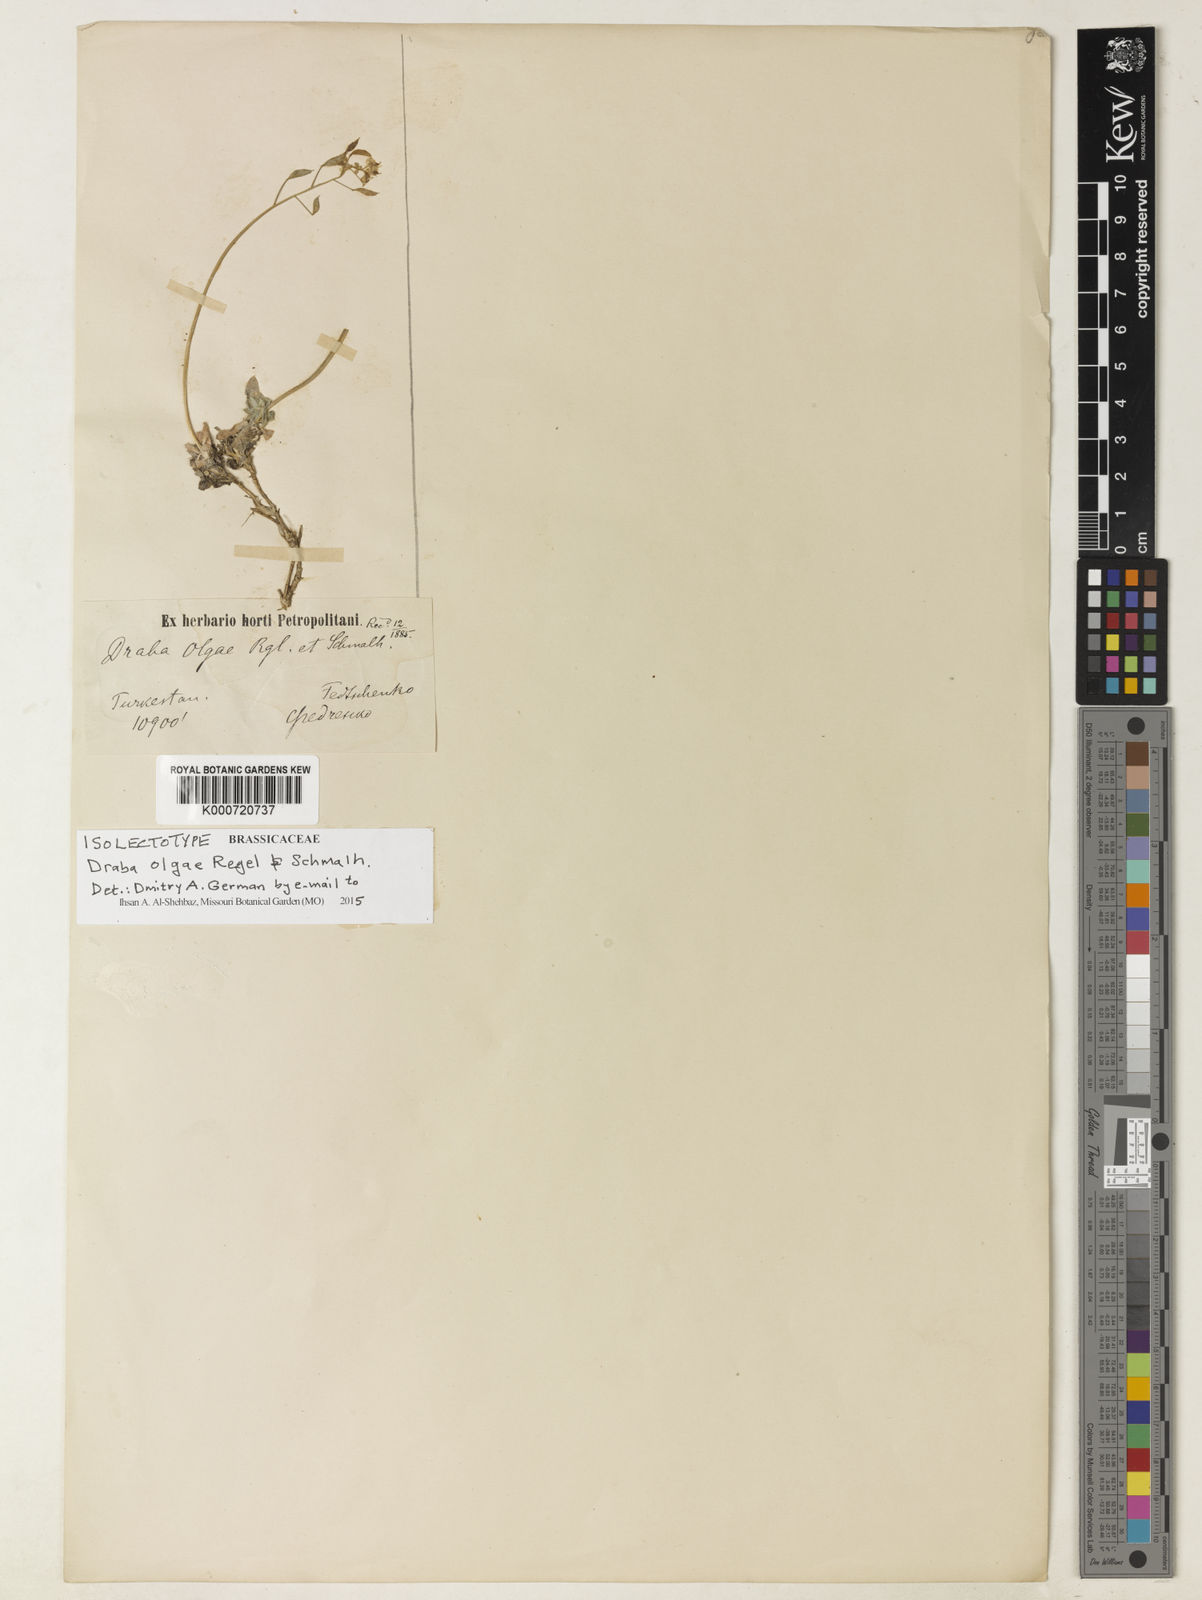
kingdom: Plantae
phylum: Tracheophyta
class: Magnoliopsida
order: Brassicales
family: Brassicaceae
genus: Draba
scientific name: Draba olgae
